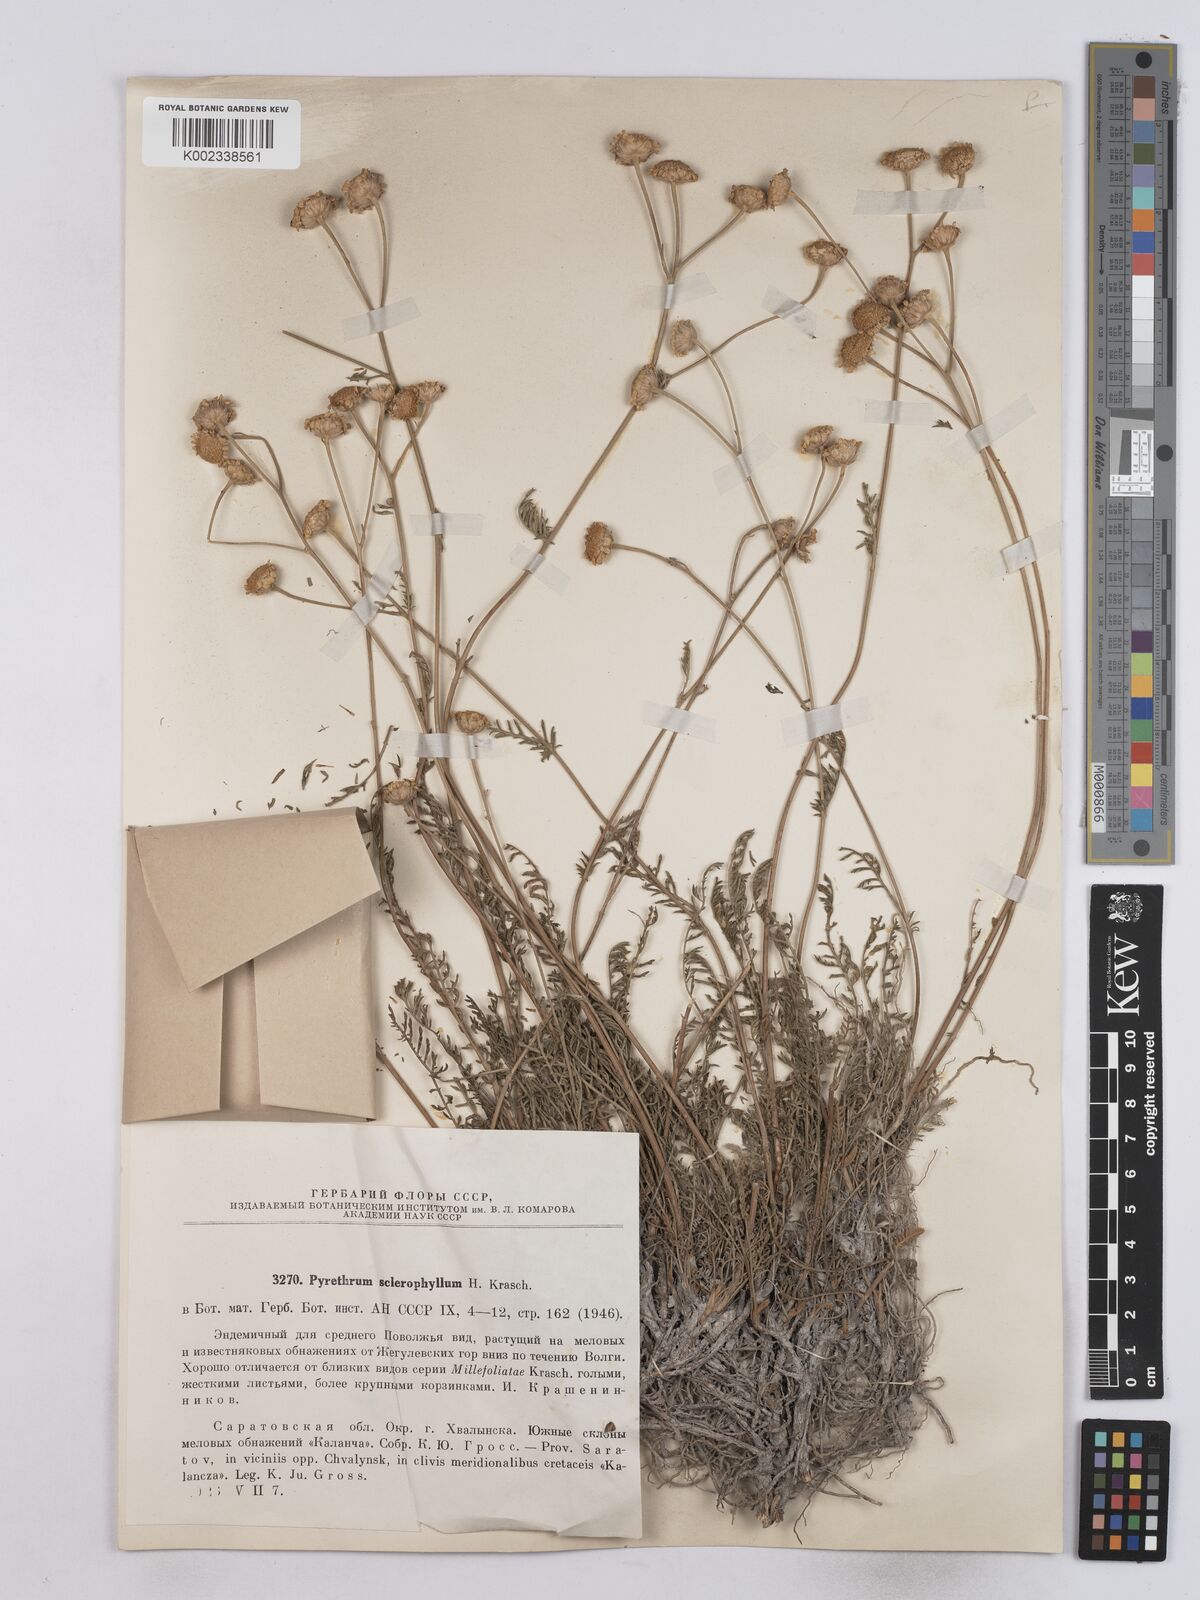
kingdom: Plantae
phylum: Tracheophyta
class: Magnoliopsida
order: Asterales
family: Asteraceae
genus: Tanacetum
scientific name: Tanacetum kittaryanum
